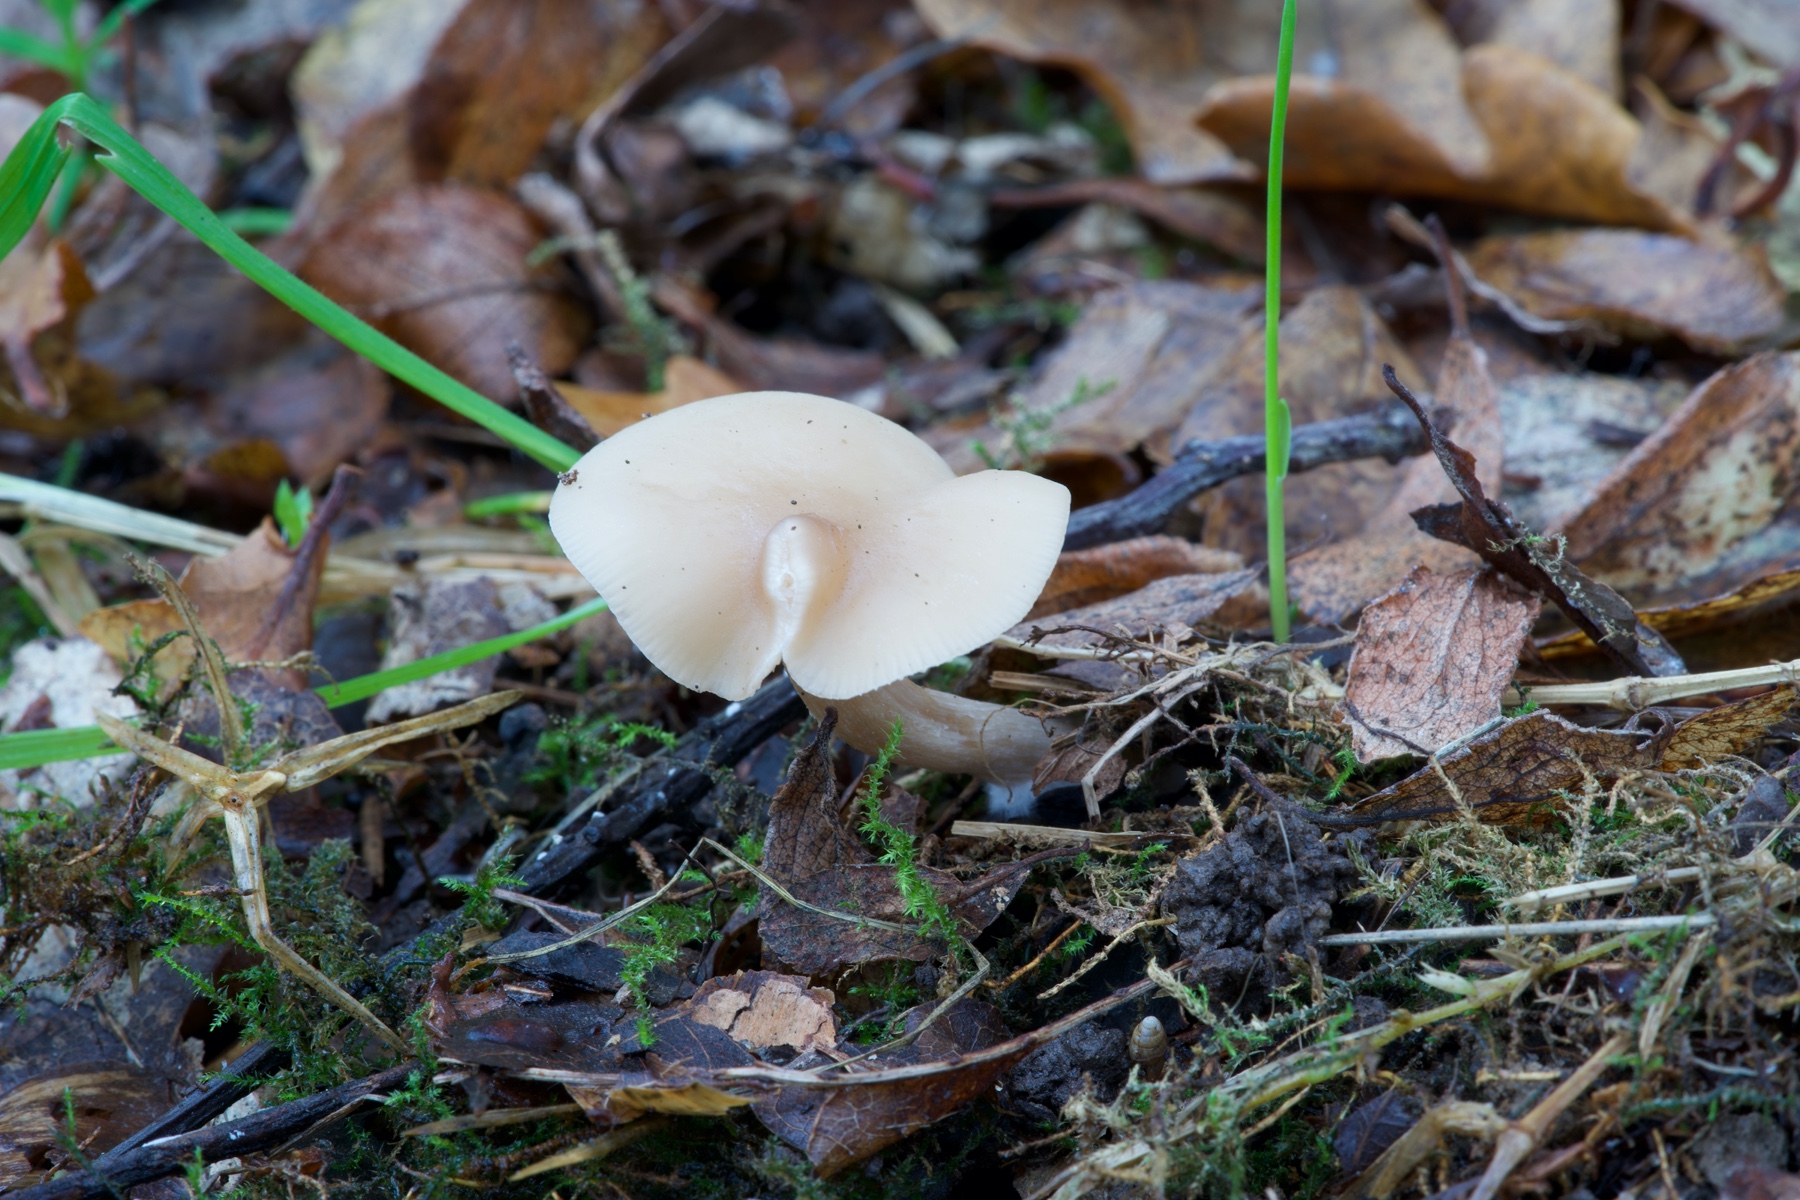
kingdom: Fungi
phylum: Basidiomycota
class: Agaricomycetes
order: Agaricales
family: Tricholomataceae
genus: Clitocybe
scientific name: Clitocybe
